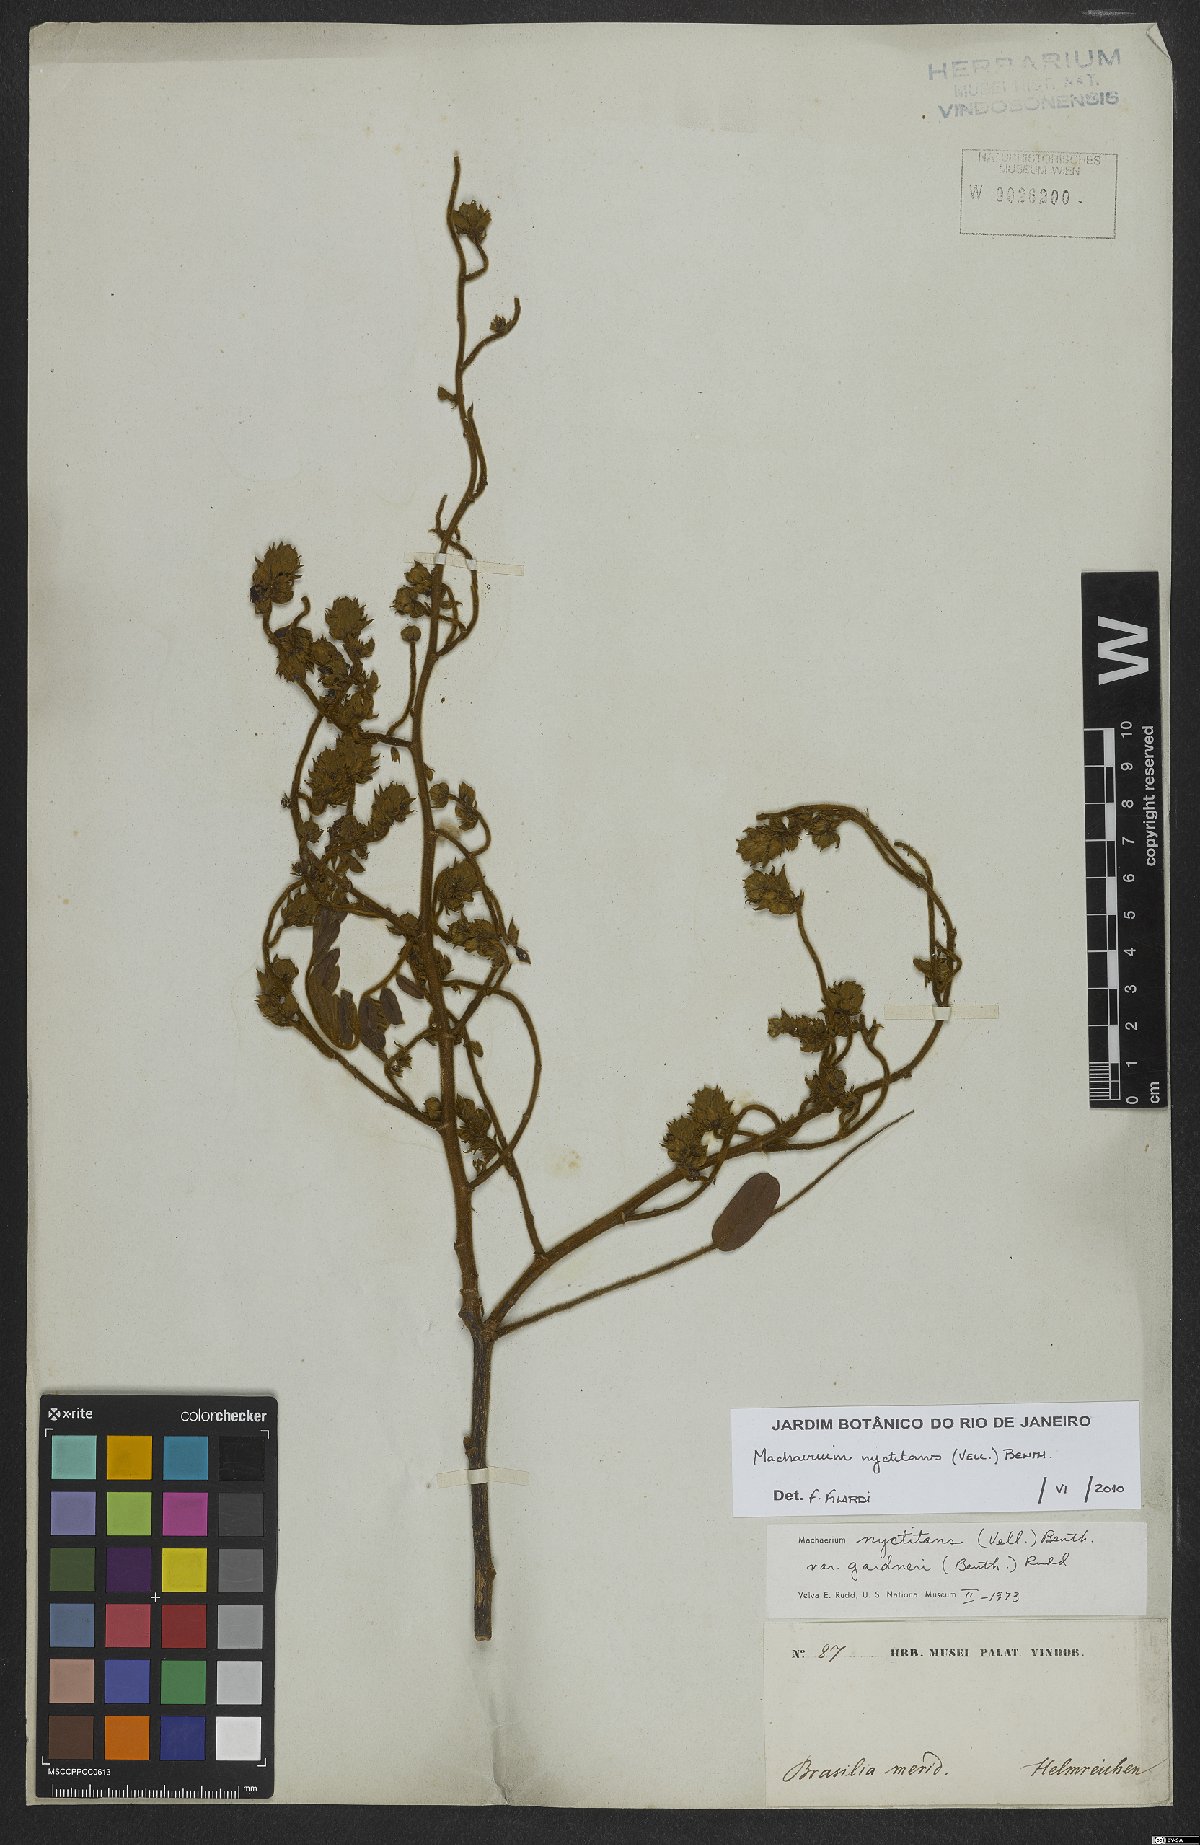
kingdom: Plantae
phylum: Tracheophyta
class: Magnoliopsida
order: Fabales
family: Fabaceae
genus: Machaerium
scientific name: Machaerium nyctitans
